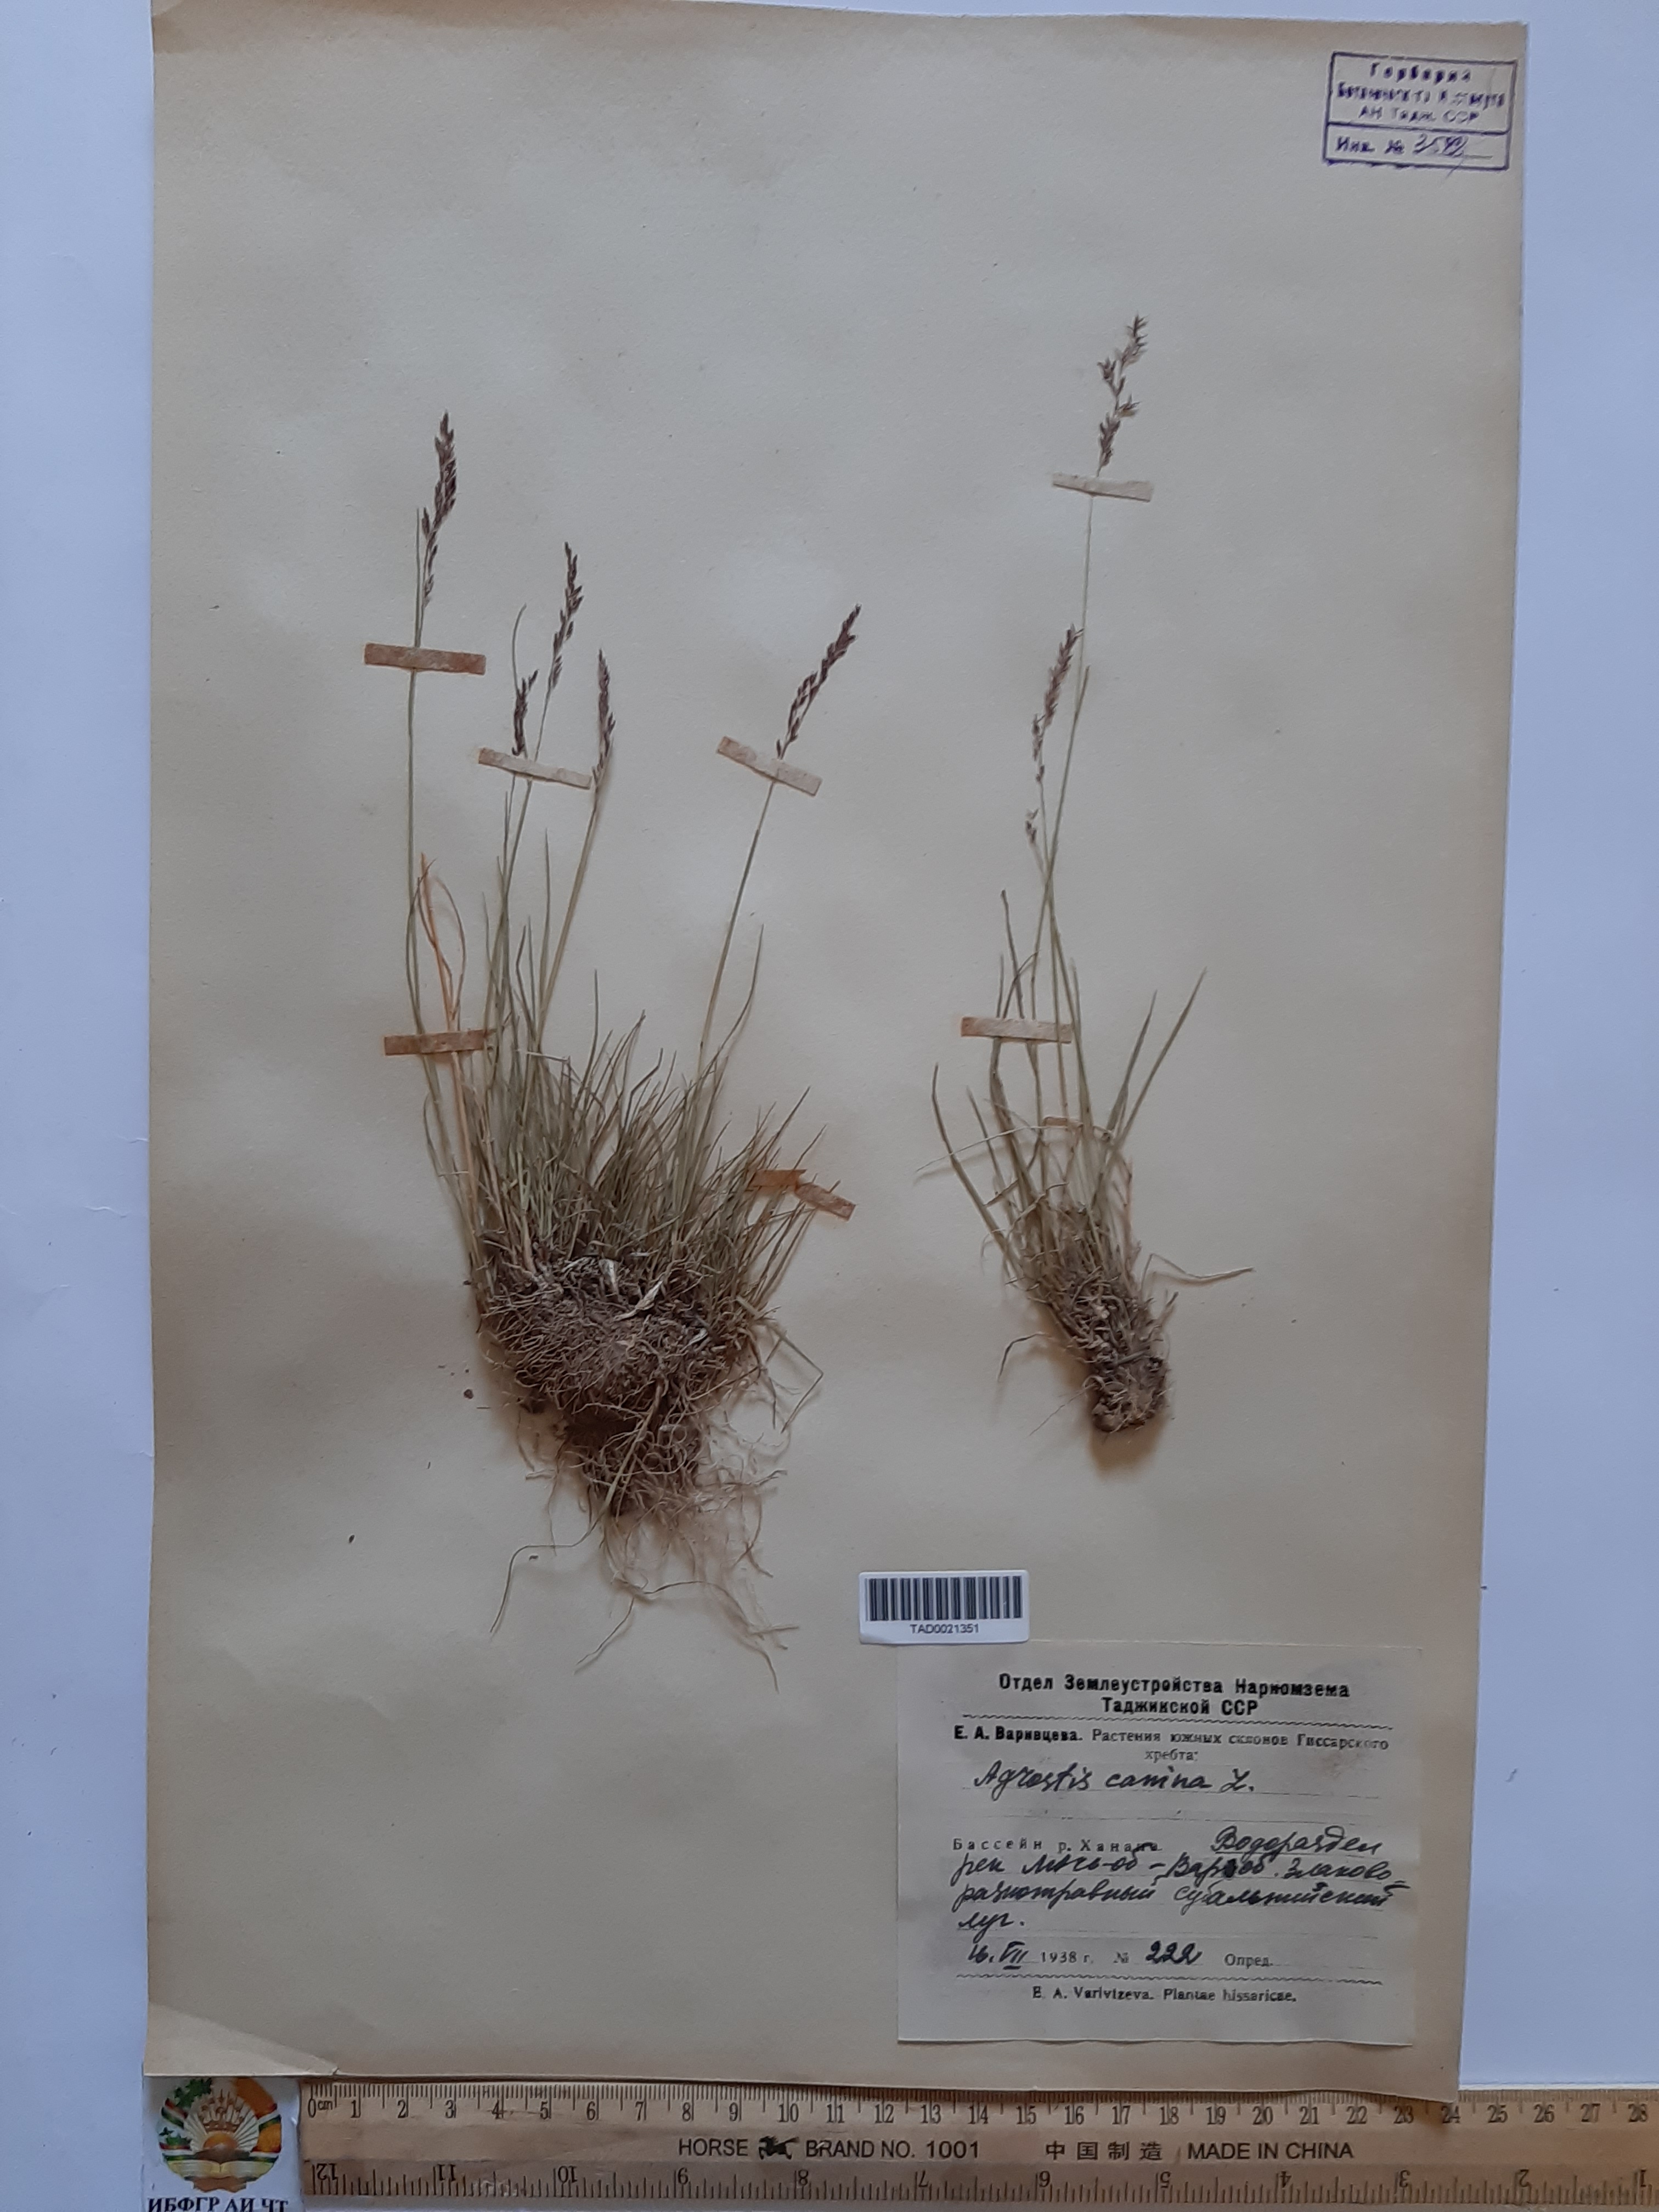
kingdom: Plantae
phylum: Tracheophyta
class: Liliopsida
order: Poales
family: Poaceae
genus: Agrostis
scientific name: Agrostis canina
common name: Velvet bent
